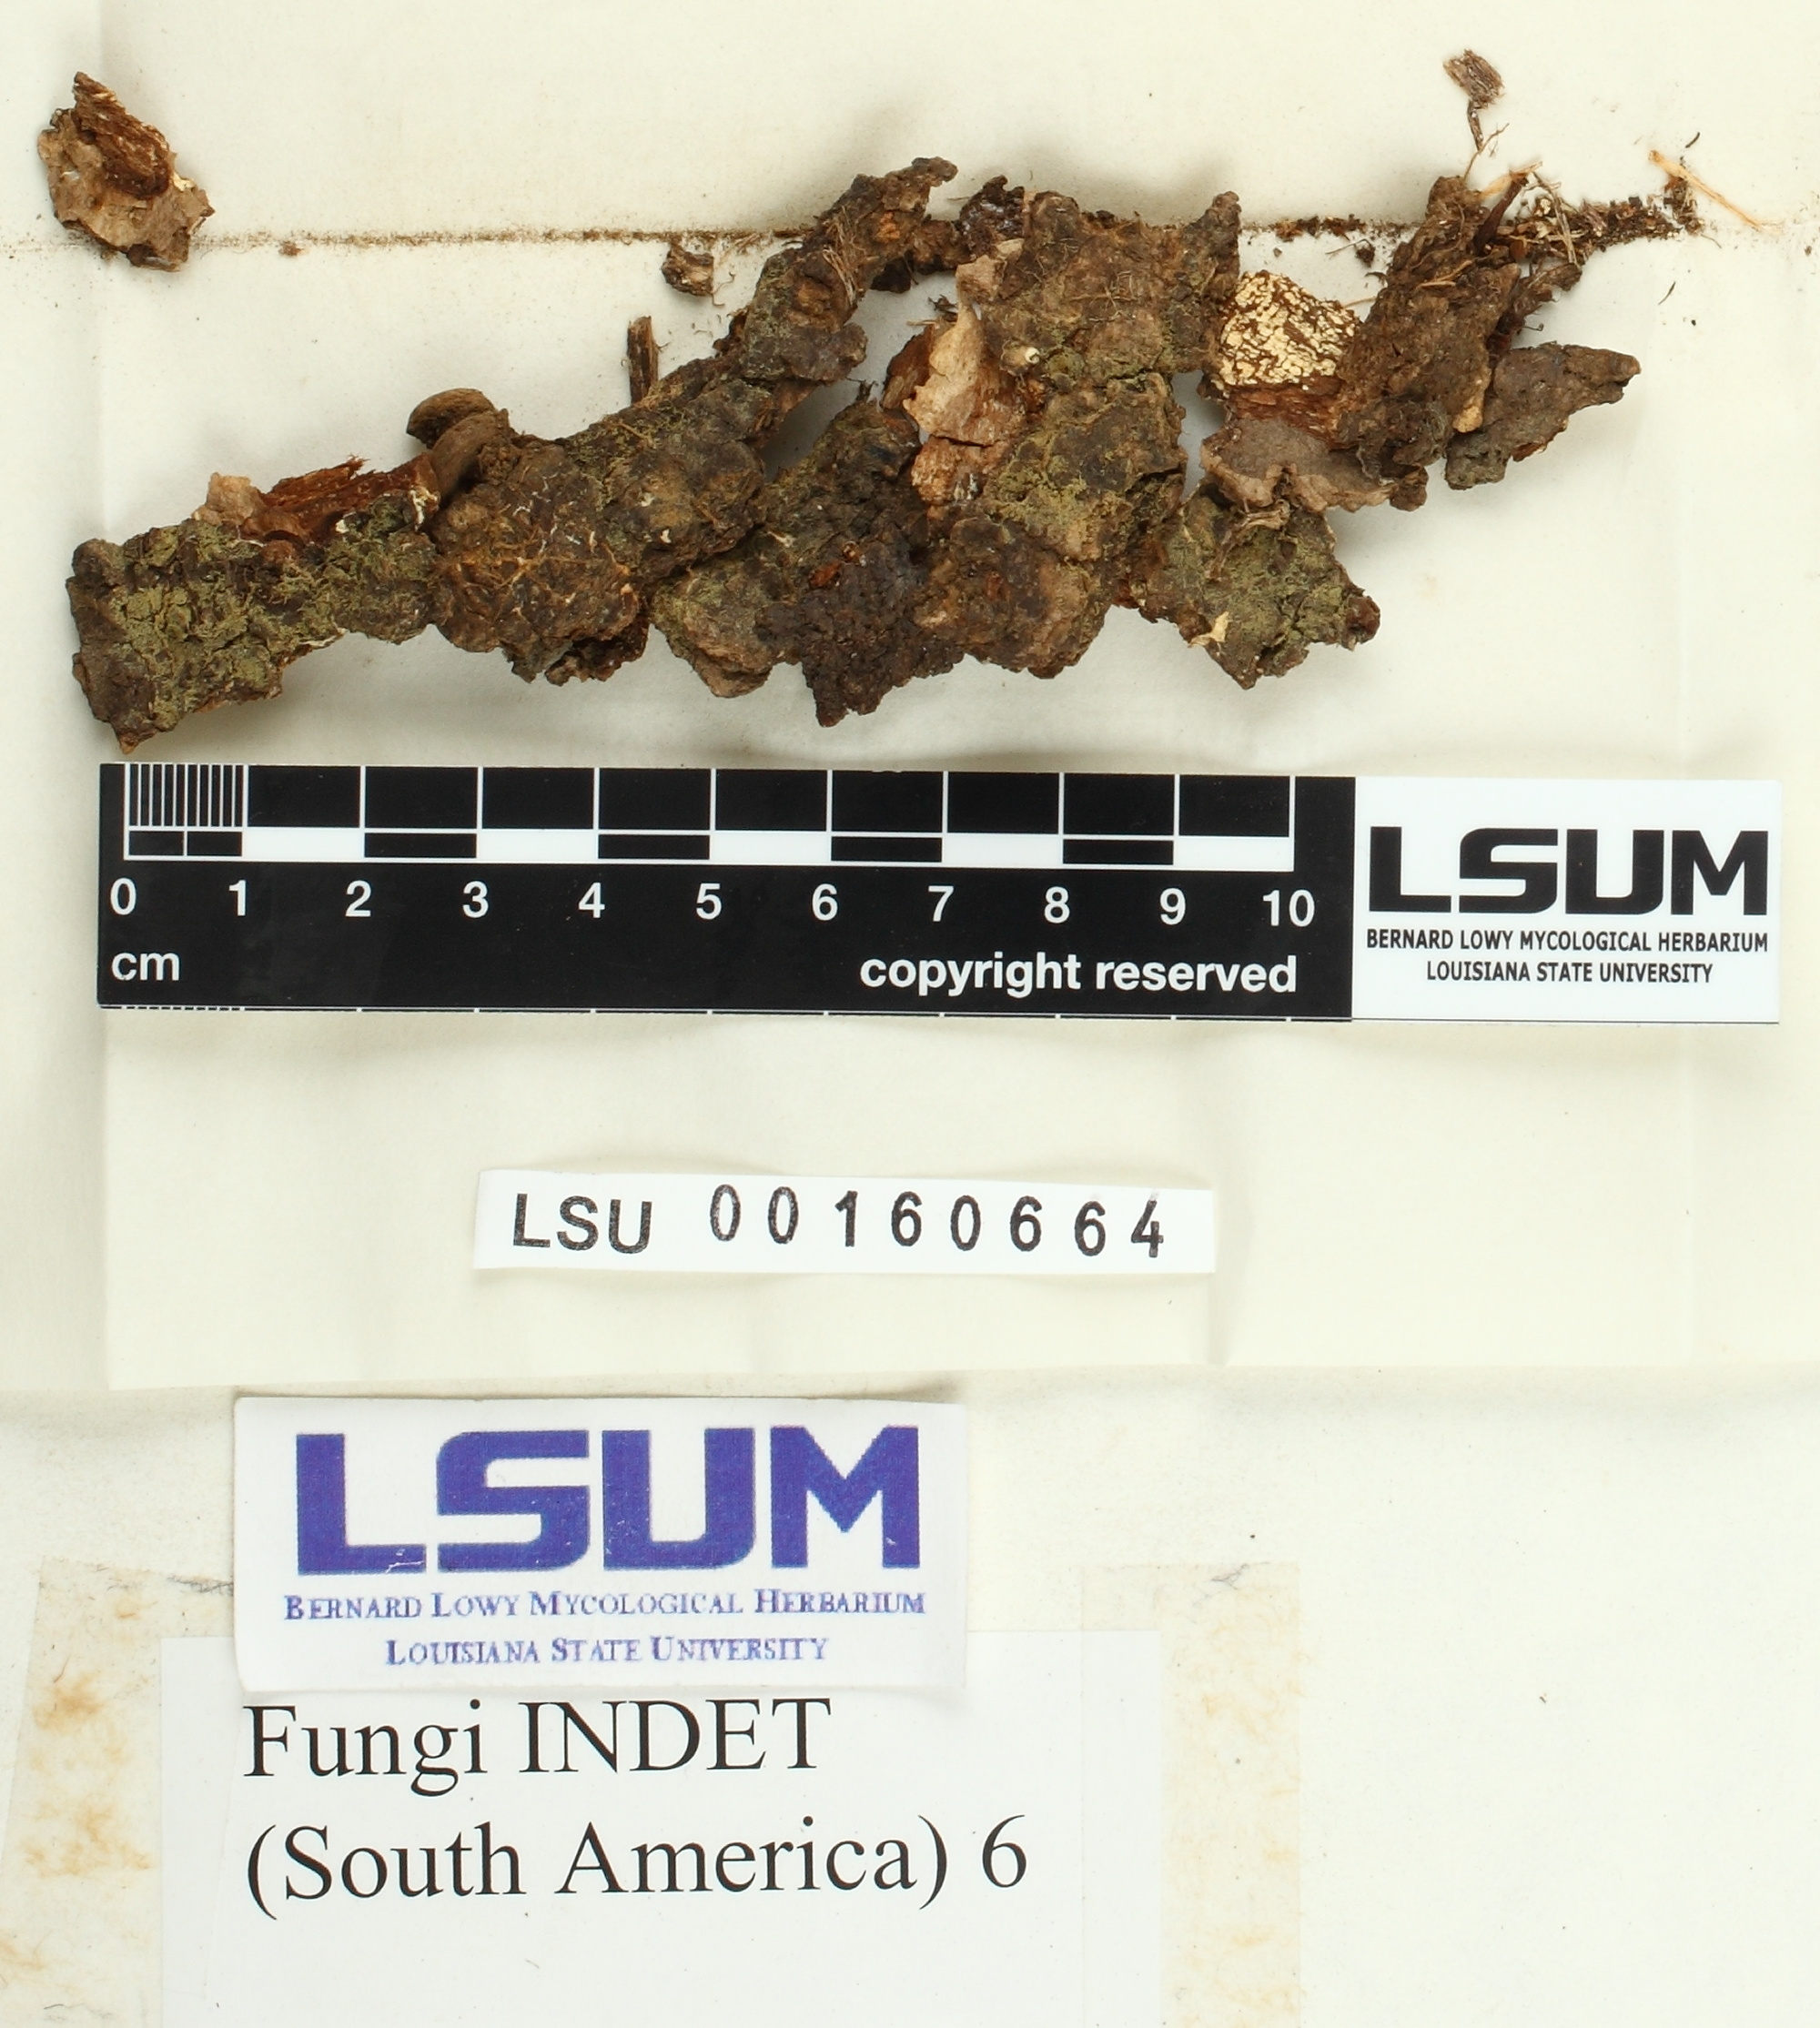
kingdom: Fungi
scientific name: Fungi
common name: Fungi
